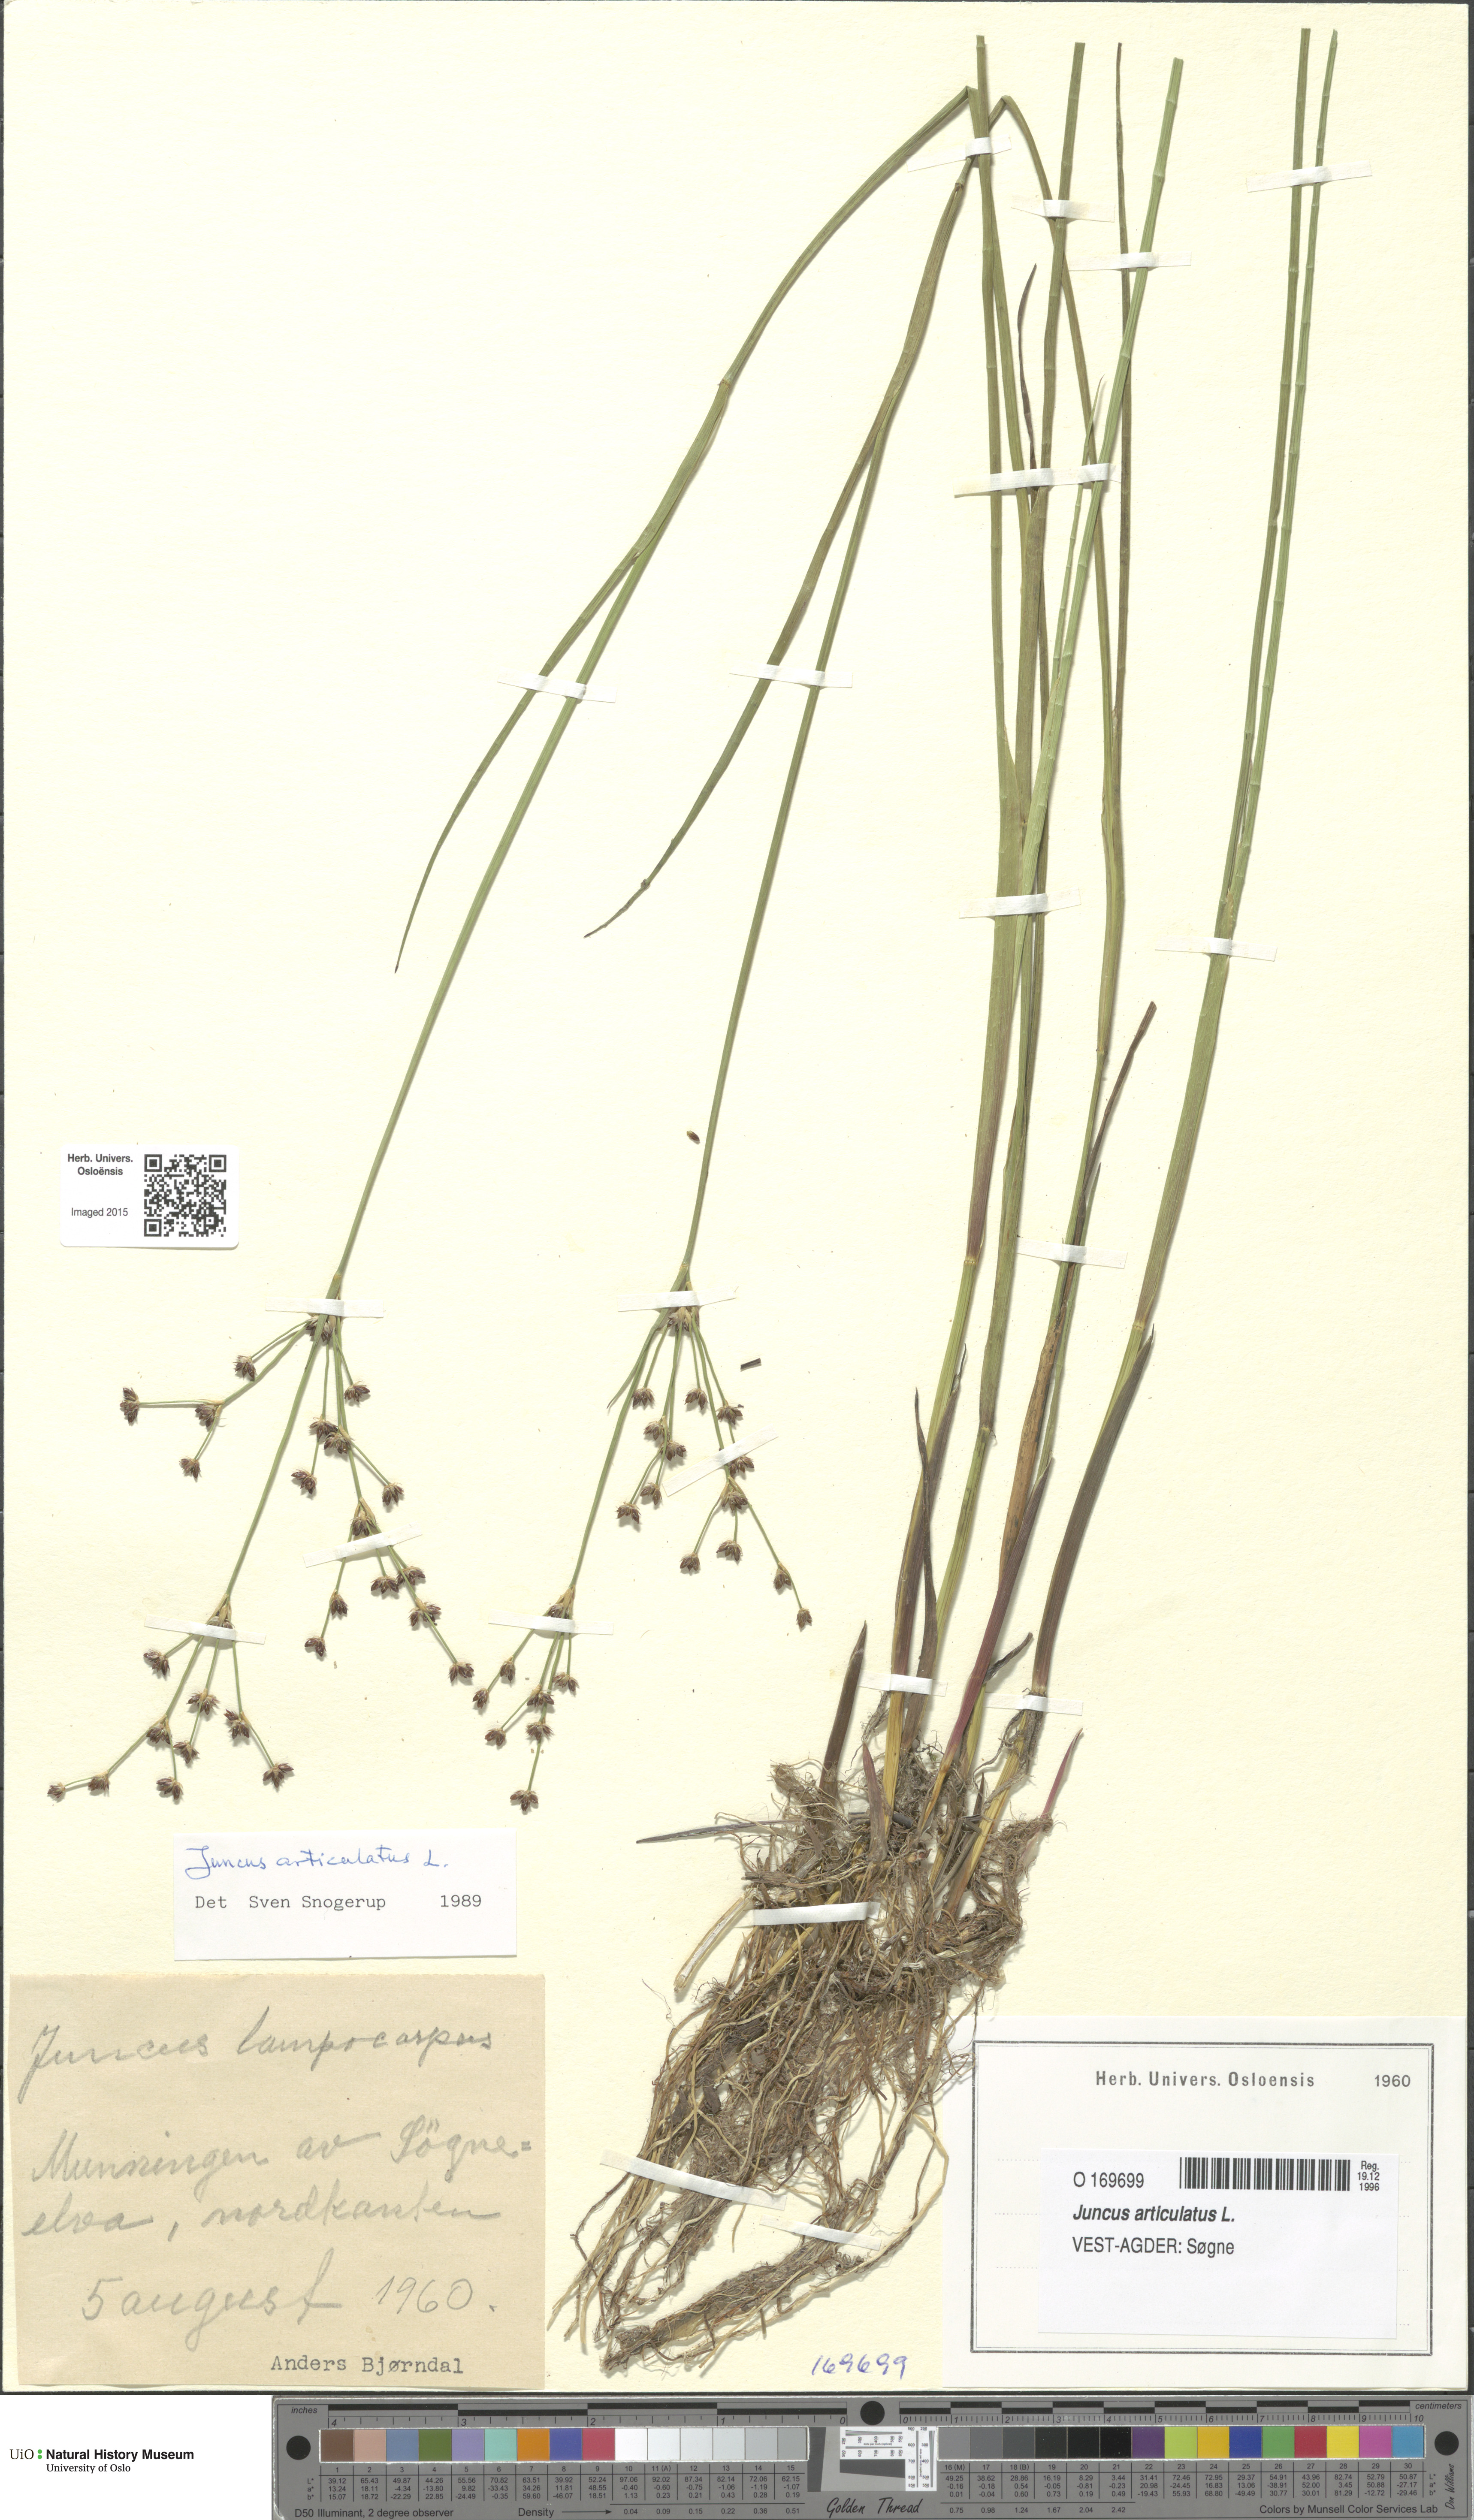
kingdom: Plantae
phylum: Tracheophyta
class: Liliopsida
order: Poales
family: Juncaceae
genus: Juncus
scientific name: Juncus articulatus
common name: Jointed rush
